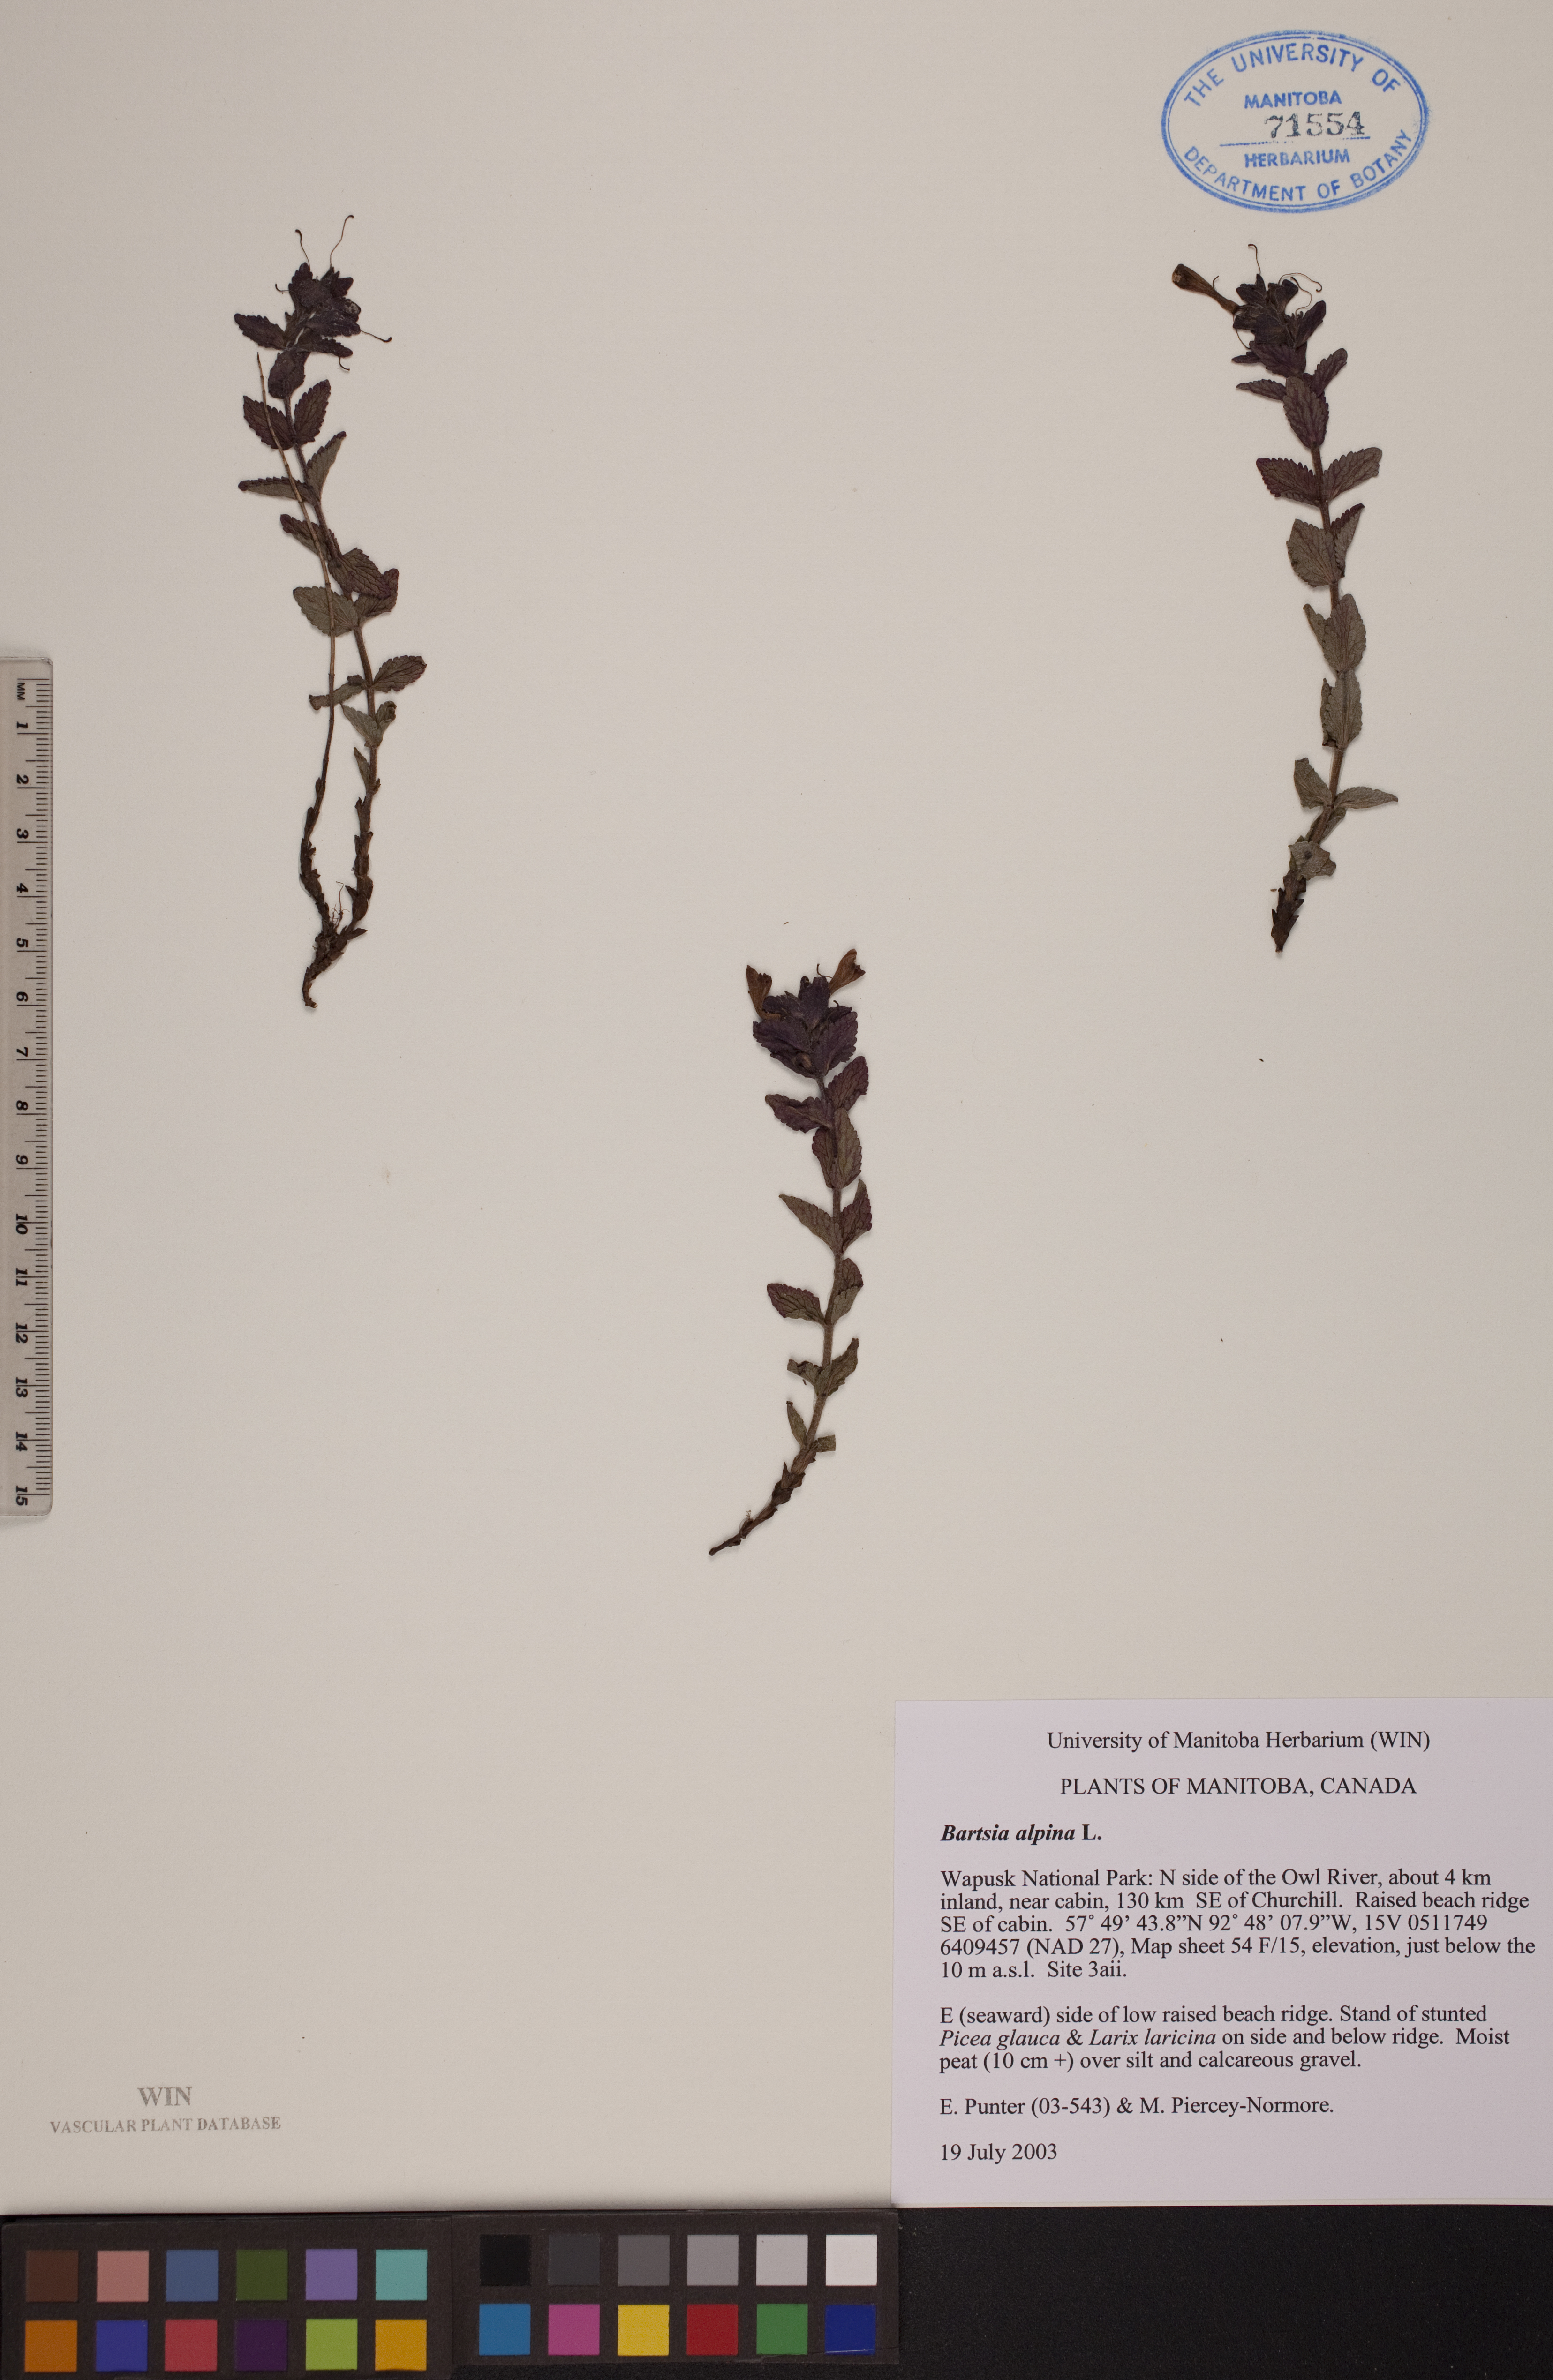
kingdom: Plantae
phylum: Tracheophyta
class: Magnoliopsida
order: Lamiales
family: Orobanchaceae
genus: Bartsia
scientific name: Bartsia alpina
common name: Alpine bartsia
